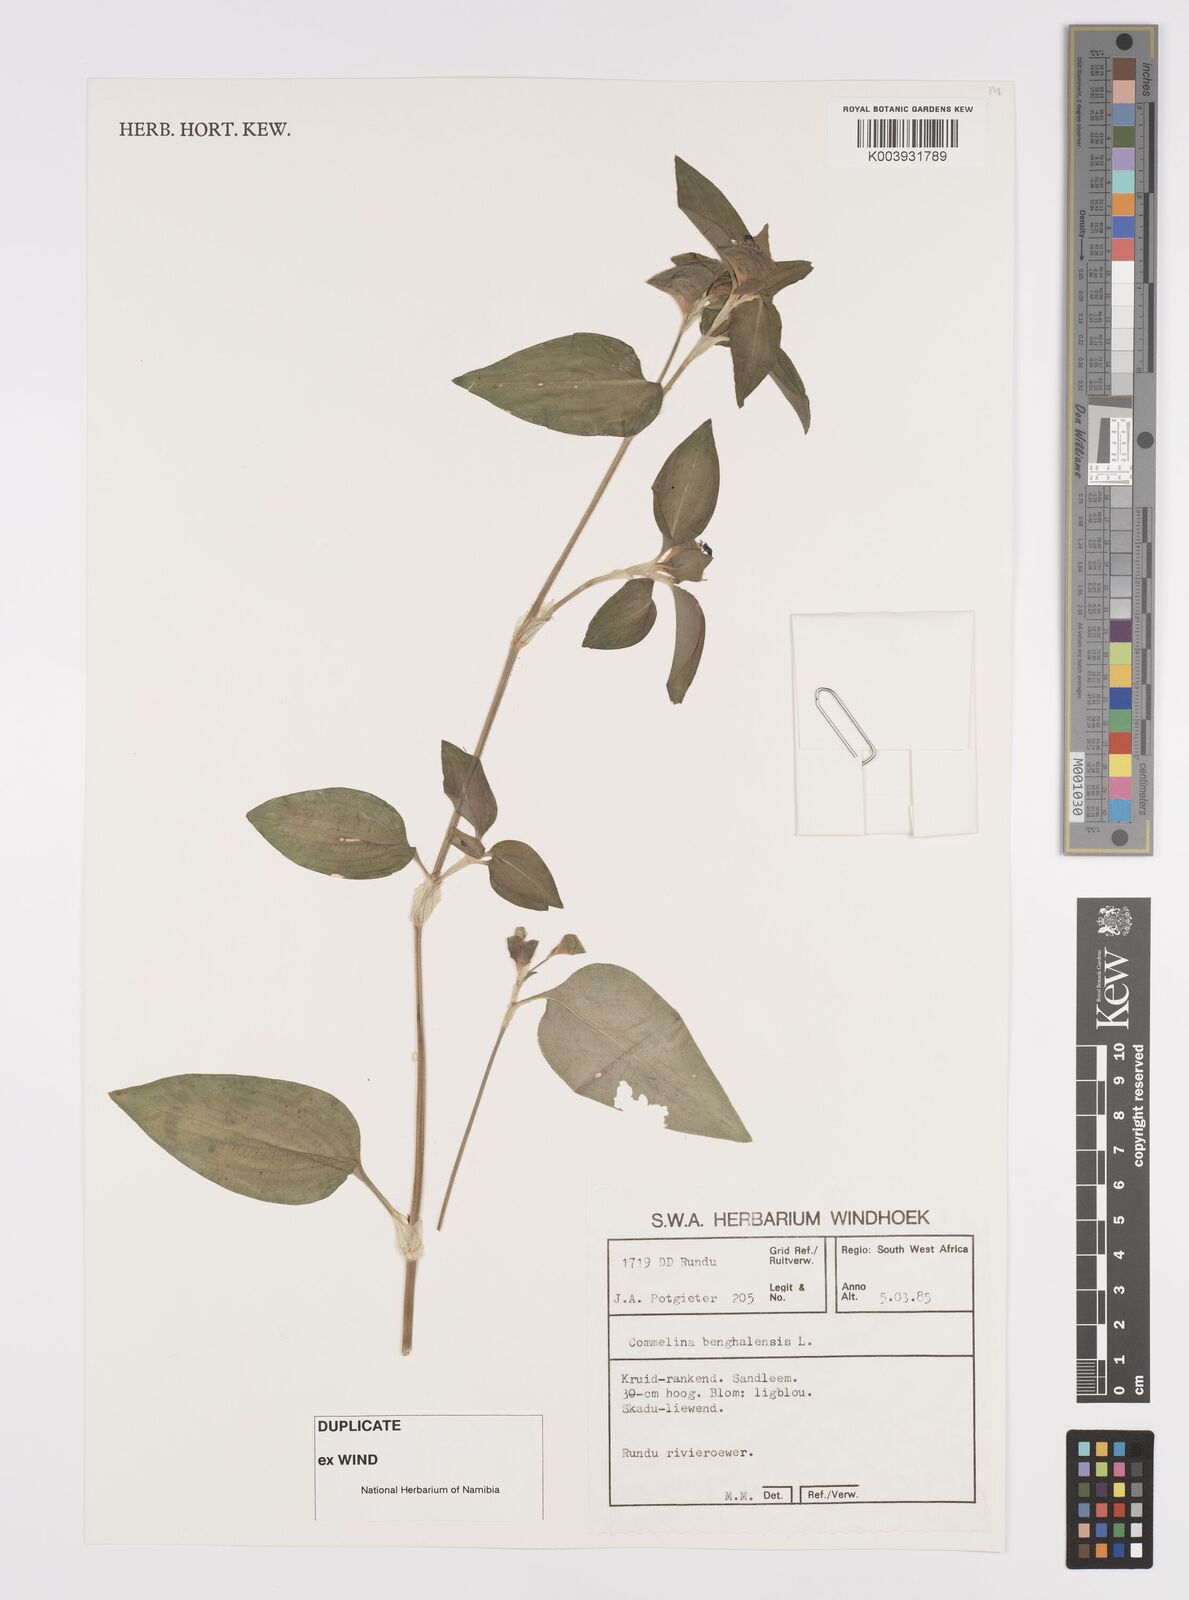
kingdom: Plantae
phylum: Tracheophyta
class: Liliopsida
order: Commelinales
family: Commelinaceae
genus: Commelina
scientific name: Commelina benghalensis
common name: Jio
